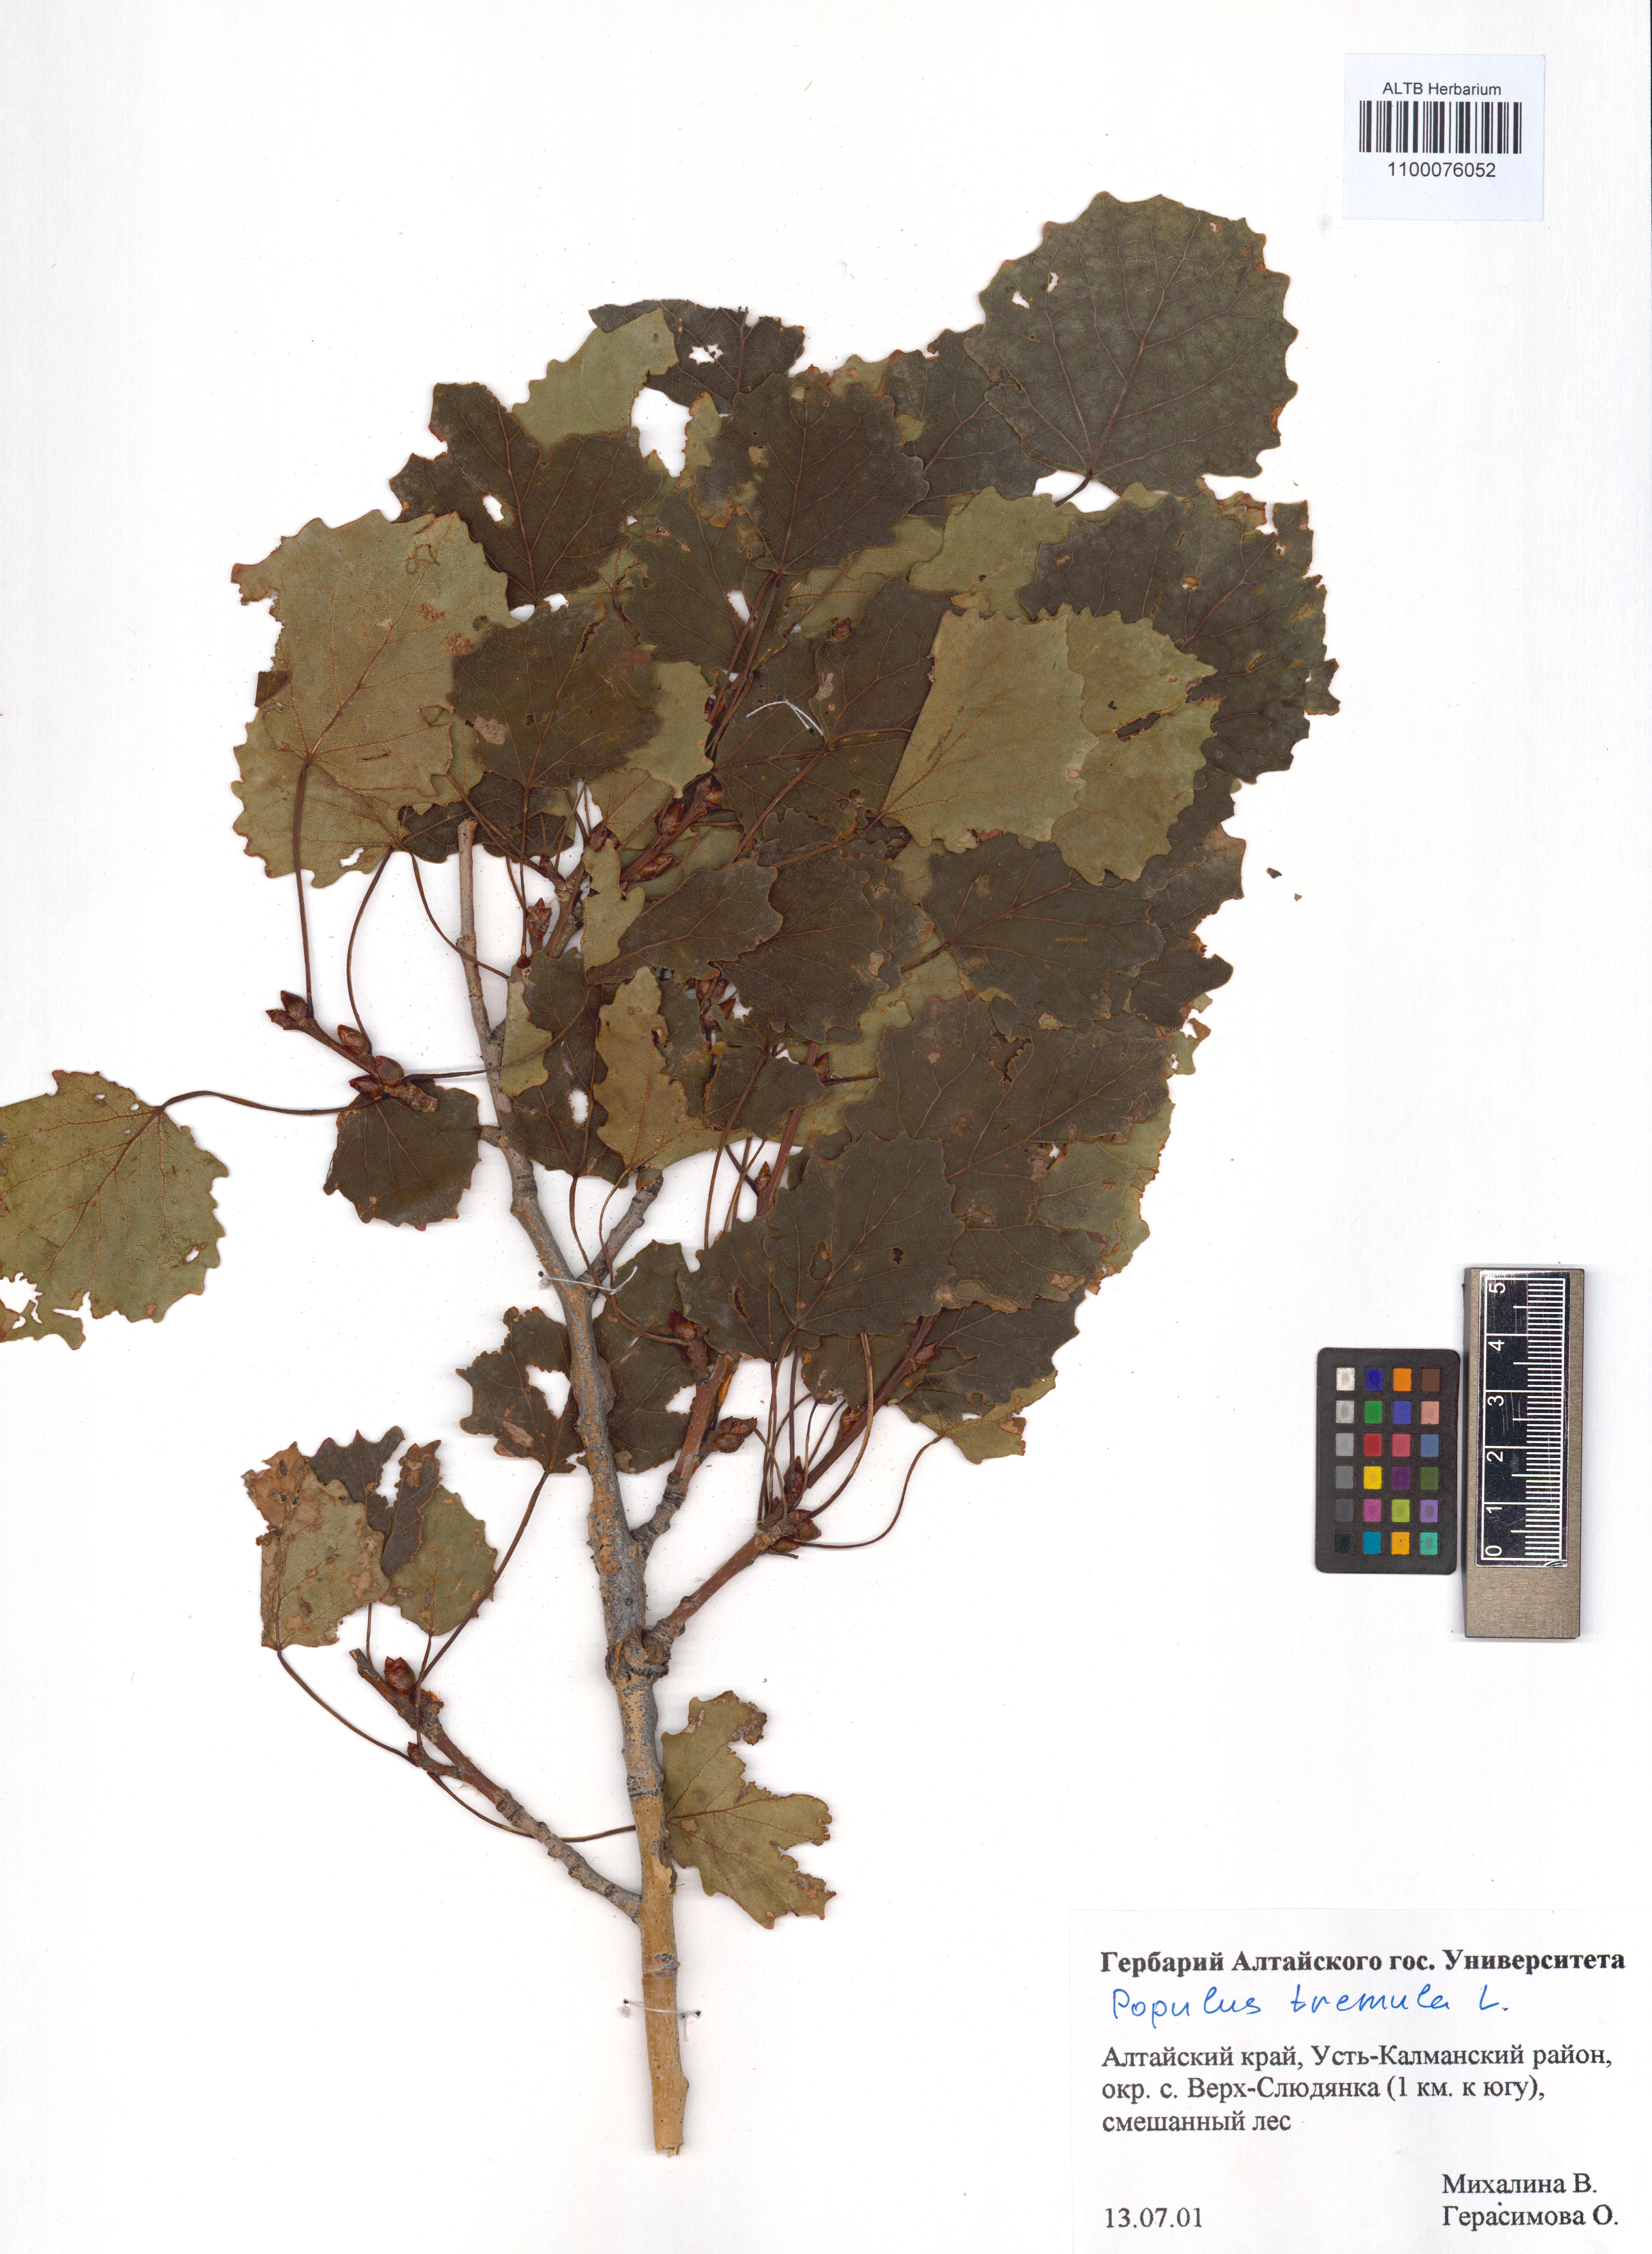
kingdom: Plantae
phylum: Tracheophyta
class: Magnoliopsida
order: Malpighiales
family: Salicaceae
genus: Populus
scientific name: Populus tremula
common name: European aspen
